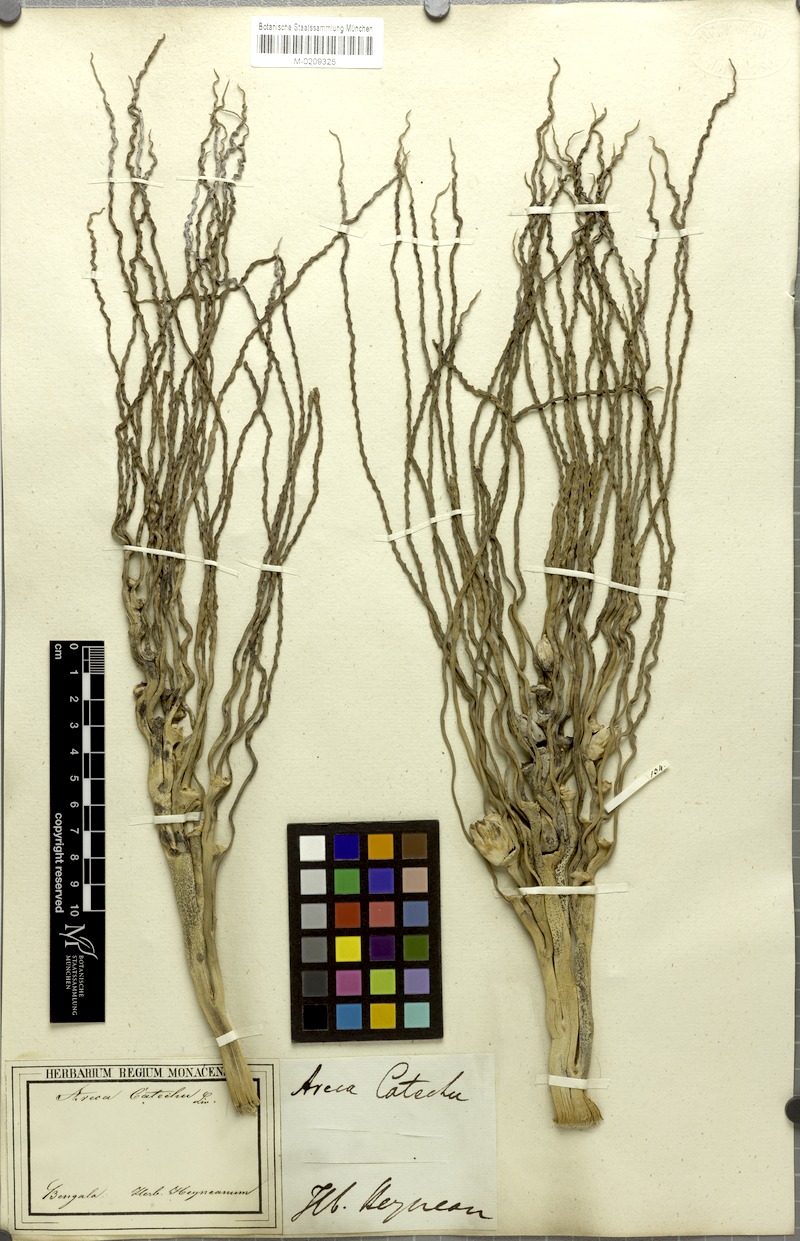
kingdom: Plantae
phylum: Tracheophyta
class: Liliopsida
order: Arecales
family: Arecaceae
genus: Areca
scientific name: Areca catechu
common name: Indian-nut
